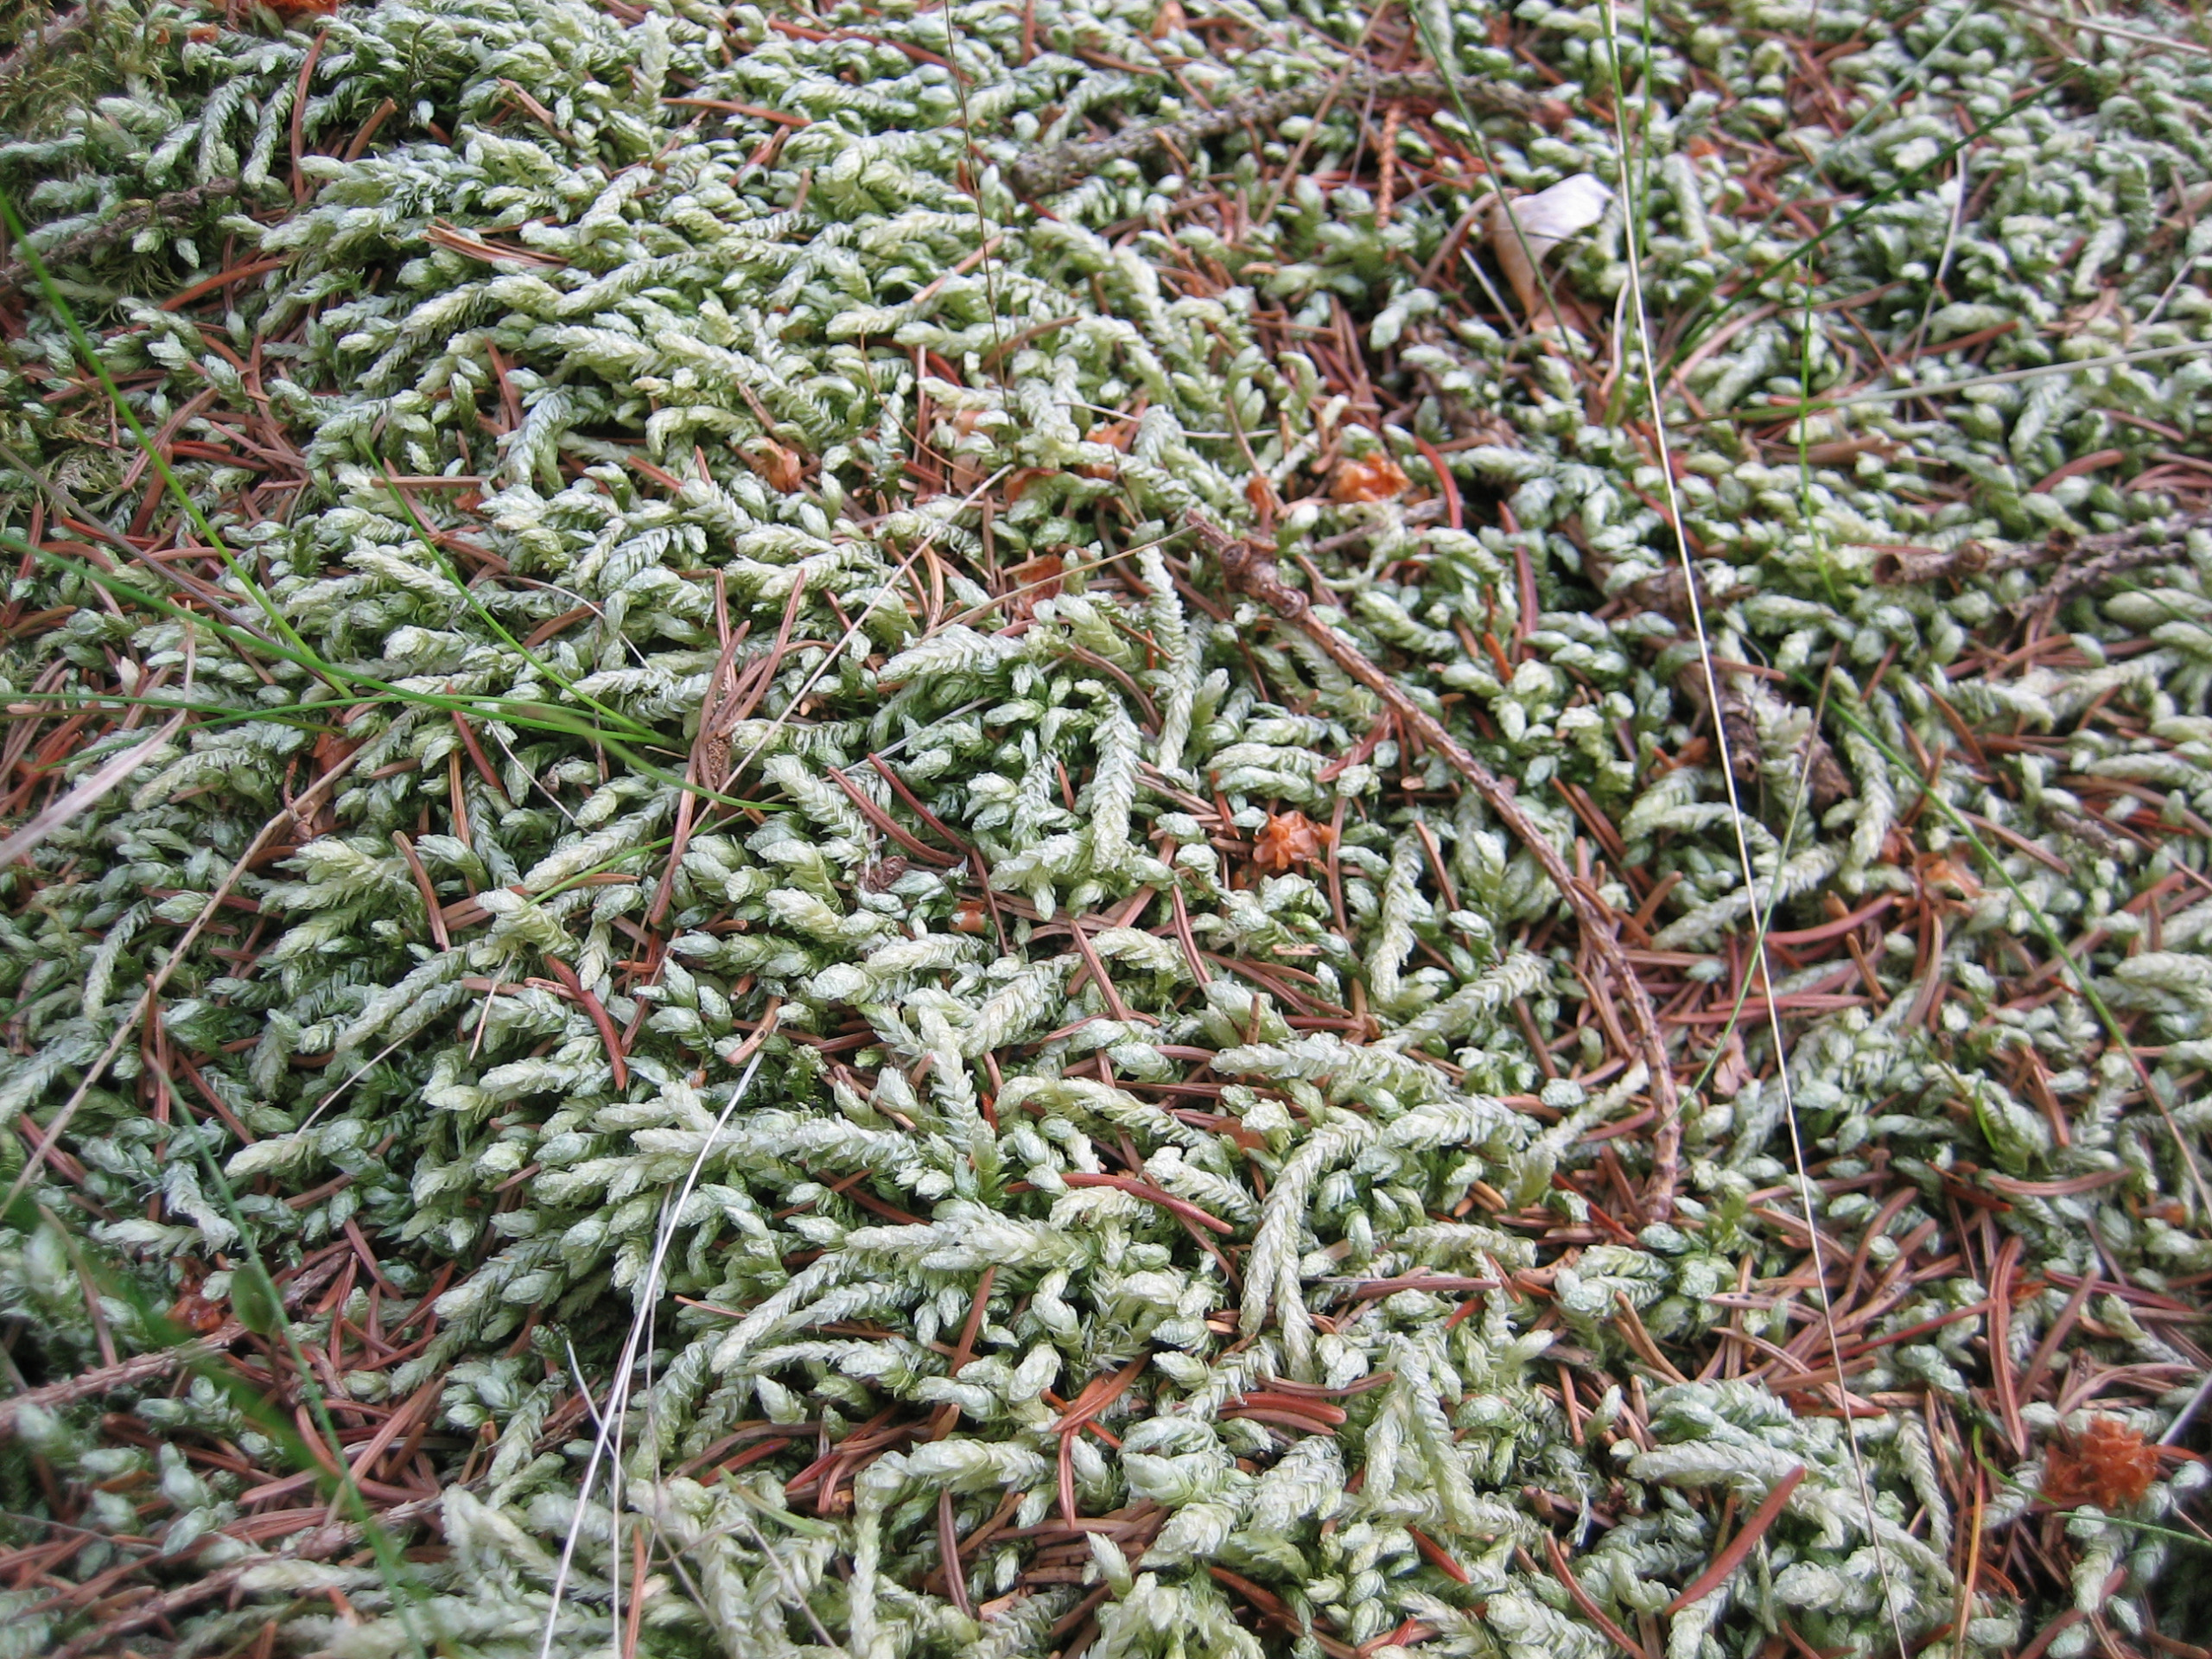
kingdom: Plantae
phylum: Bryophyta
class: Bryopsida
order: Hypnales
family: Plagiotheciaceae
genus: Plagiothecium
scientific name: Plagiothecium undulatum
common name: Bølget tæppemos
